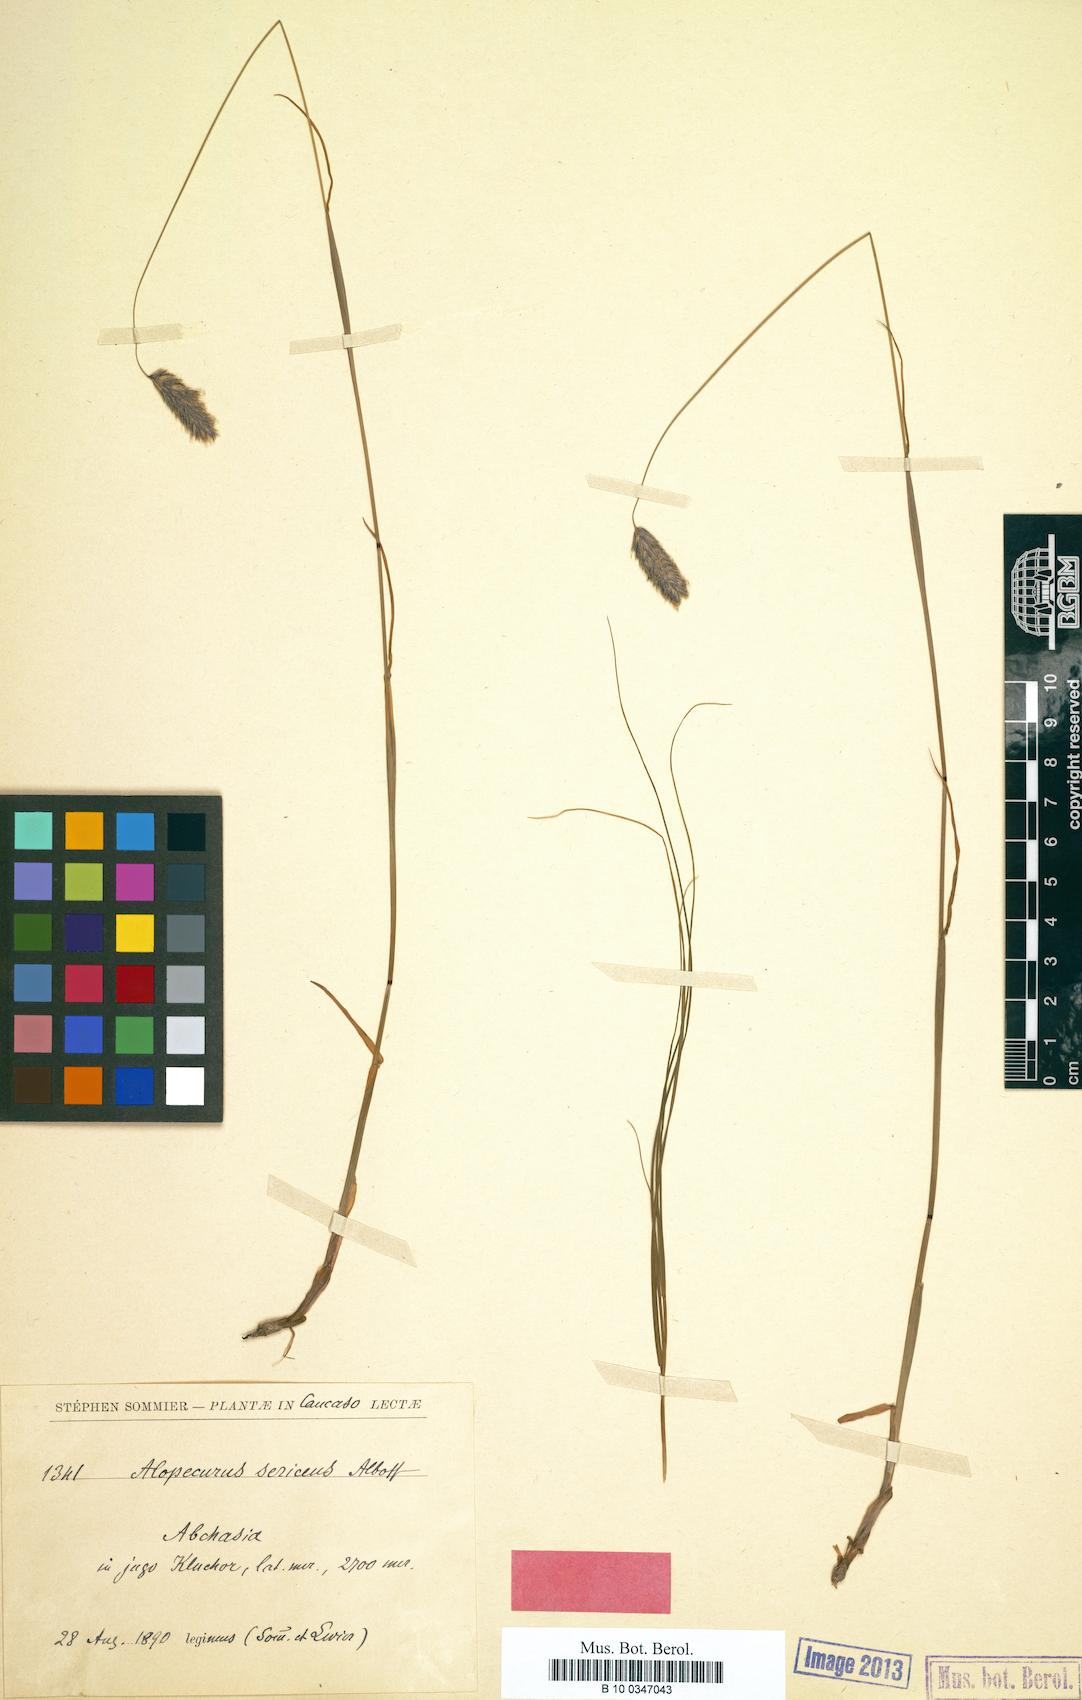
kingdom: Plantae
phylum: Tracheophyta
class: Liliopsida
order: Poales
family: Poaceae
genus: Alopecurus
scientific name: Alopecurus ponticus
